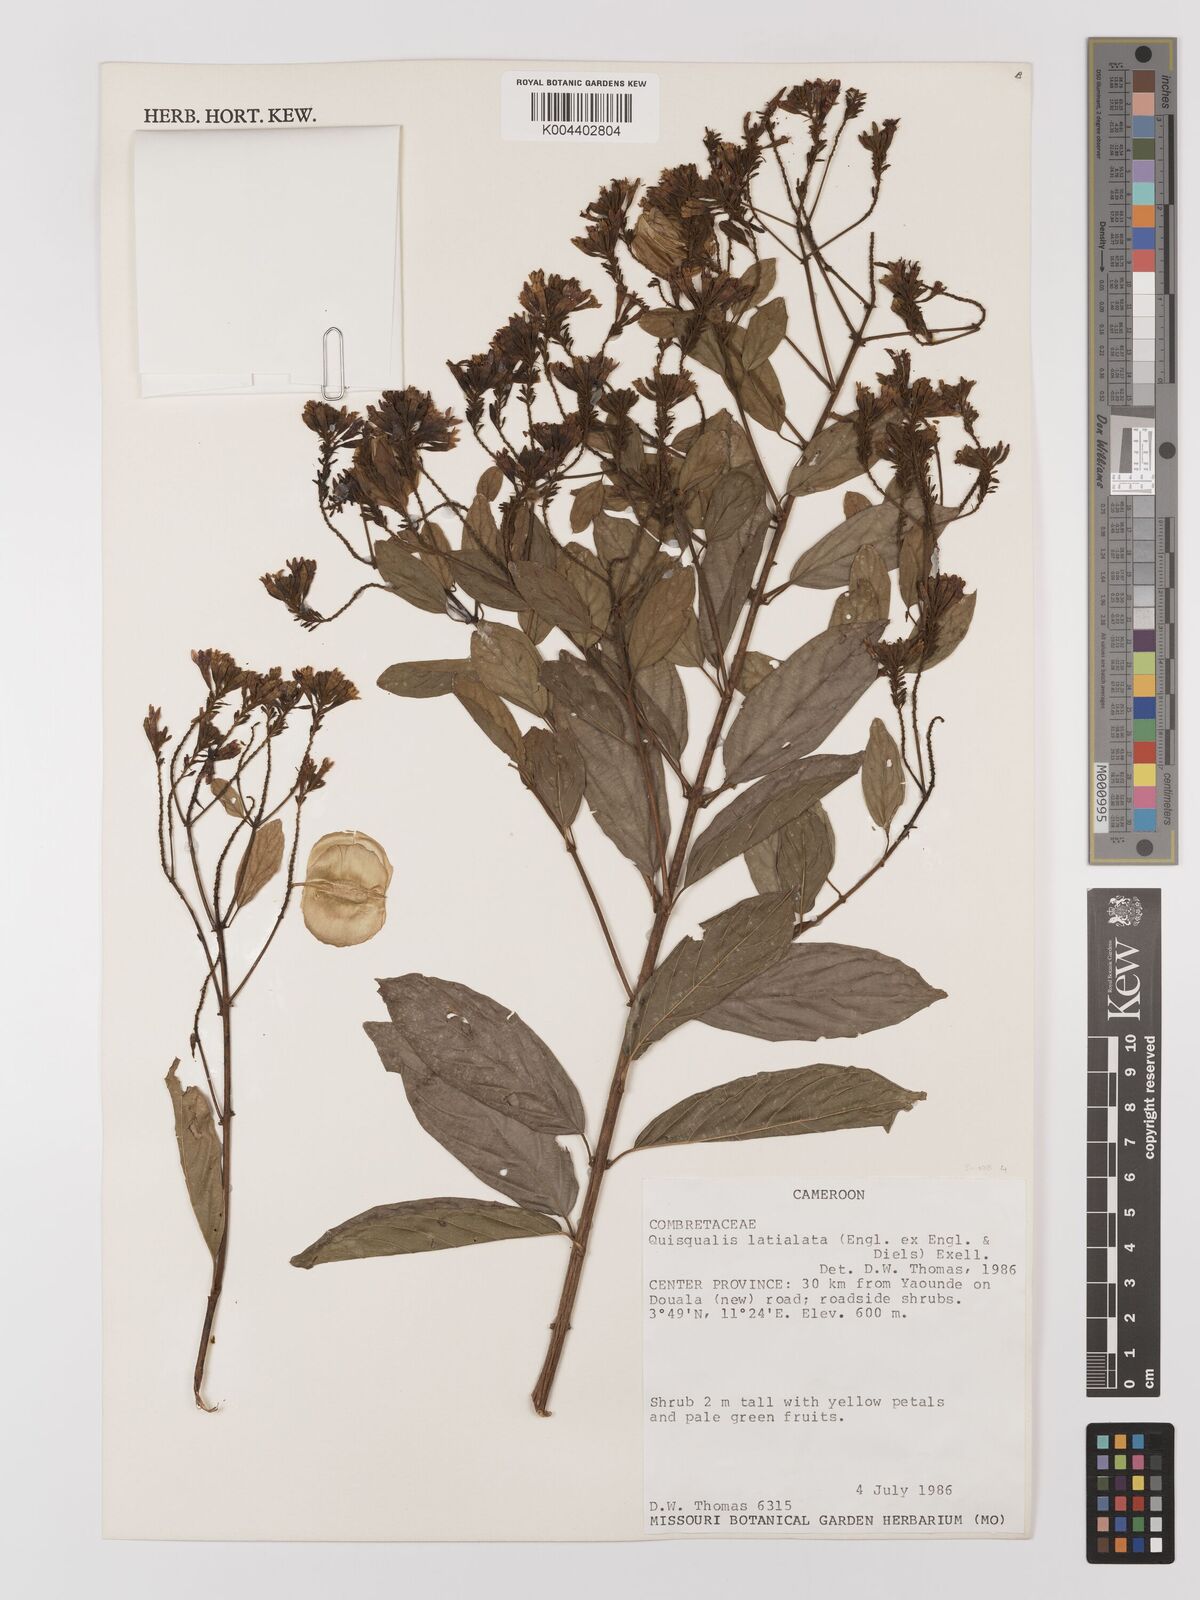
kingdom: Plantae
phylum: Tracheophyta
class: Magnoliopsida
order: Myrtales
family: Combretaceae
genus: Combretum
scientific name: Combretum latialatum
